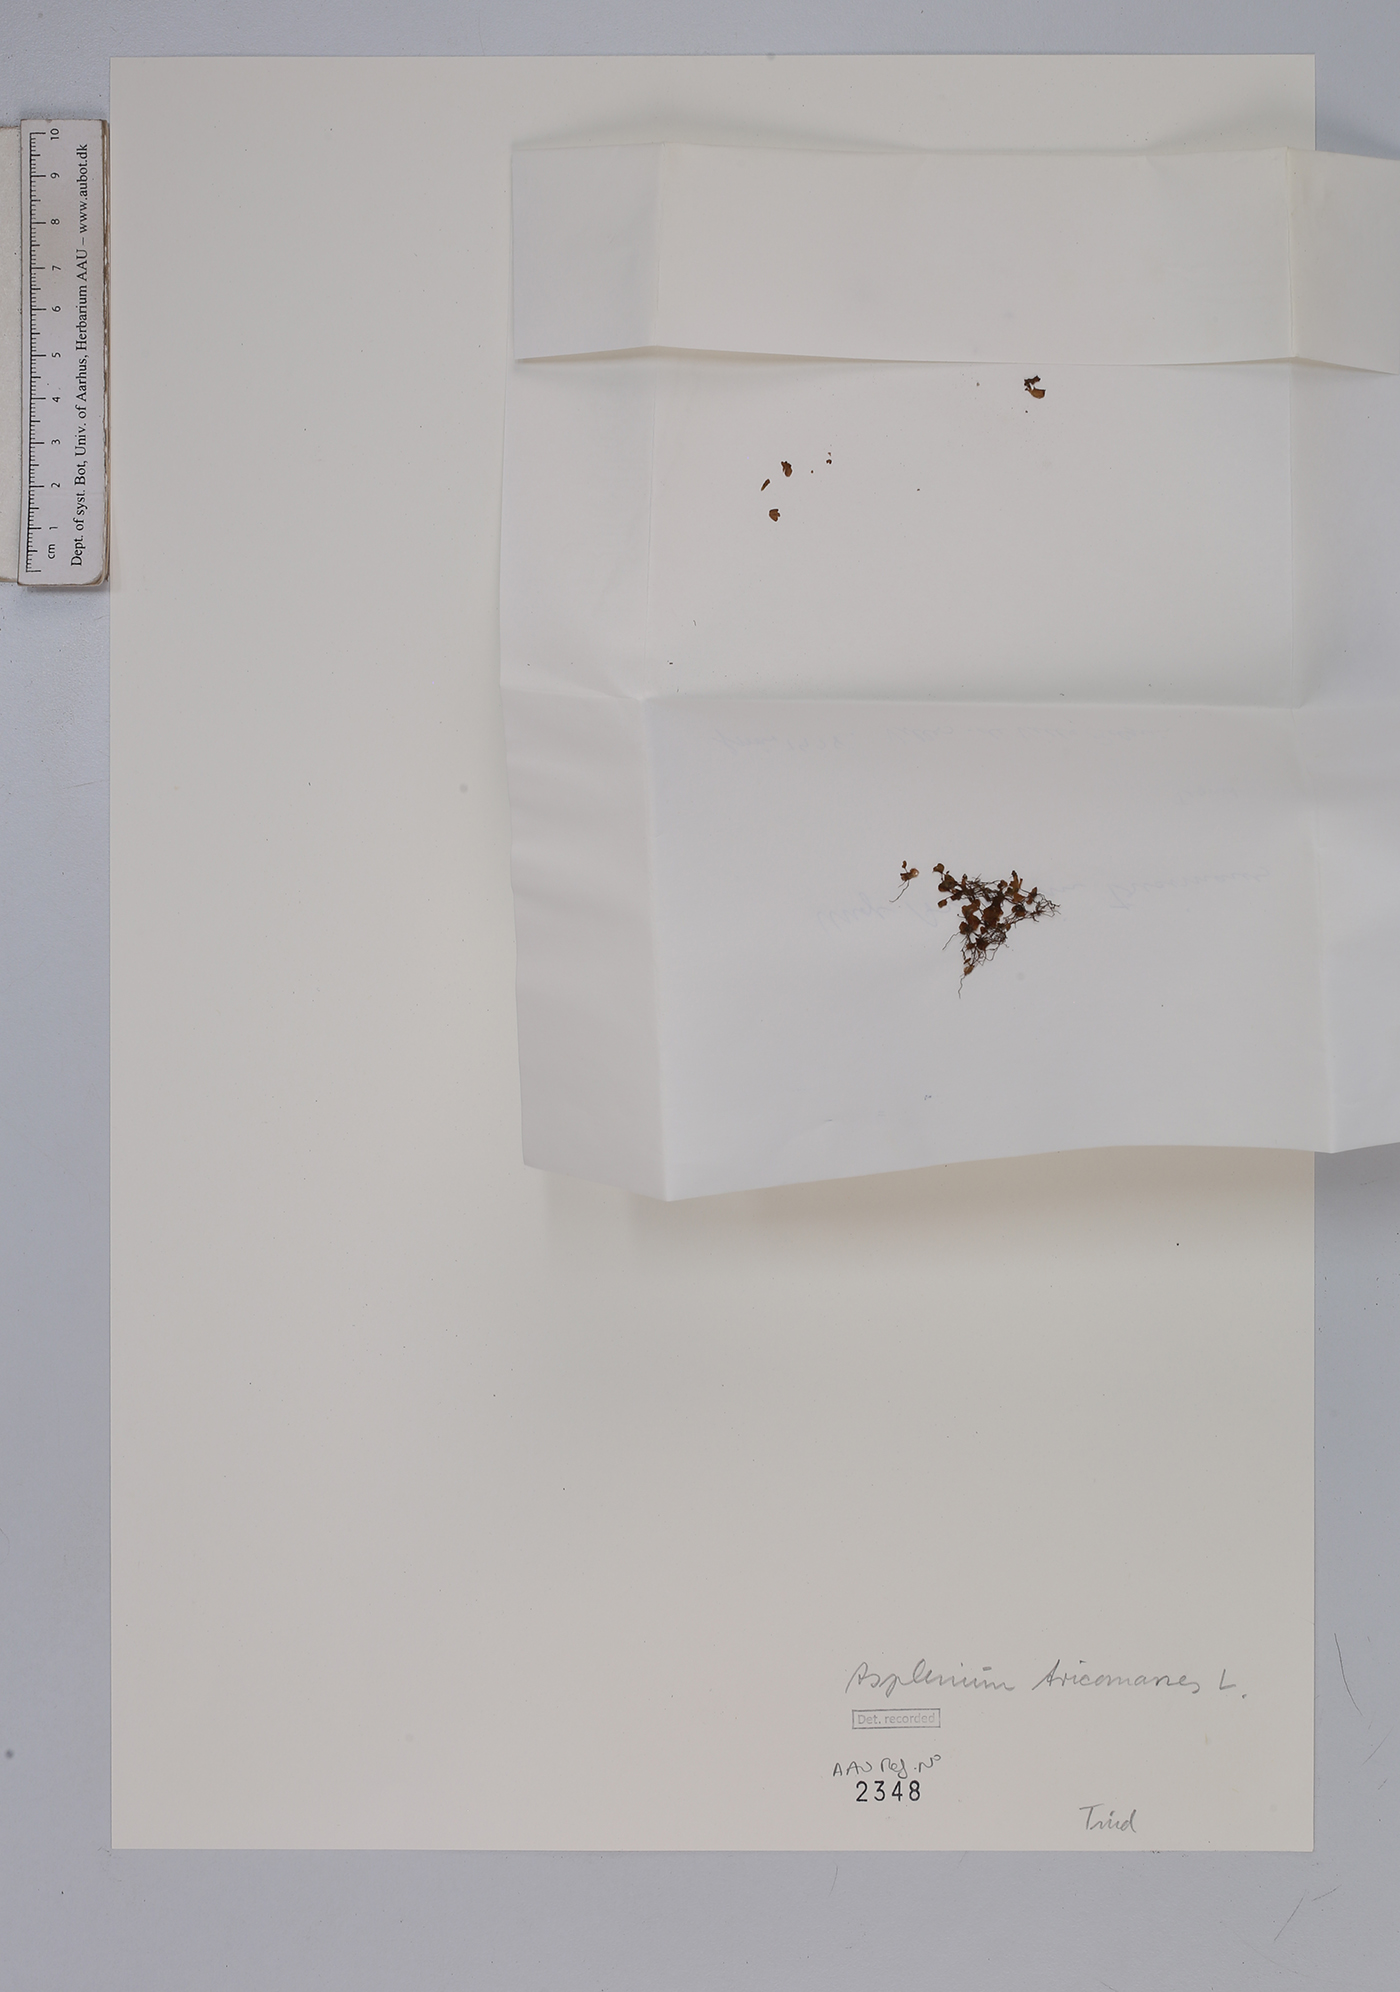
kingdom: Plantae
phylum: Tracheophyta
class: Polypodiopsida
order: Polypodiales
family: Aspleniaceae
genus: Asplenium
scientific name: Asplenium trichomanes
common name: Maidenhair spleenwort
